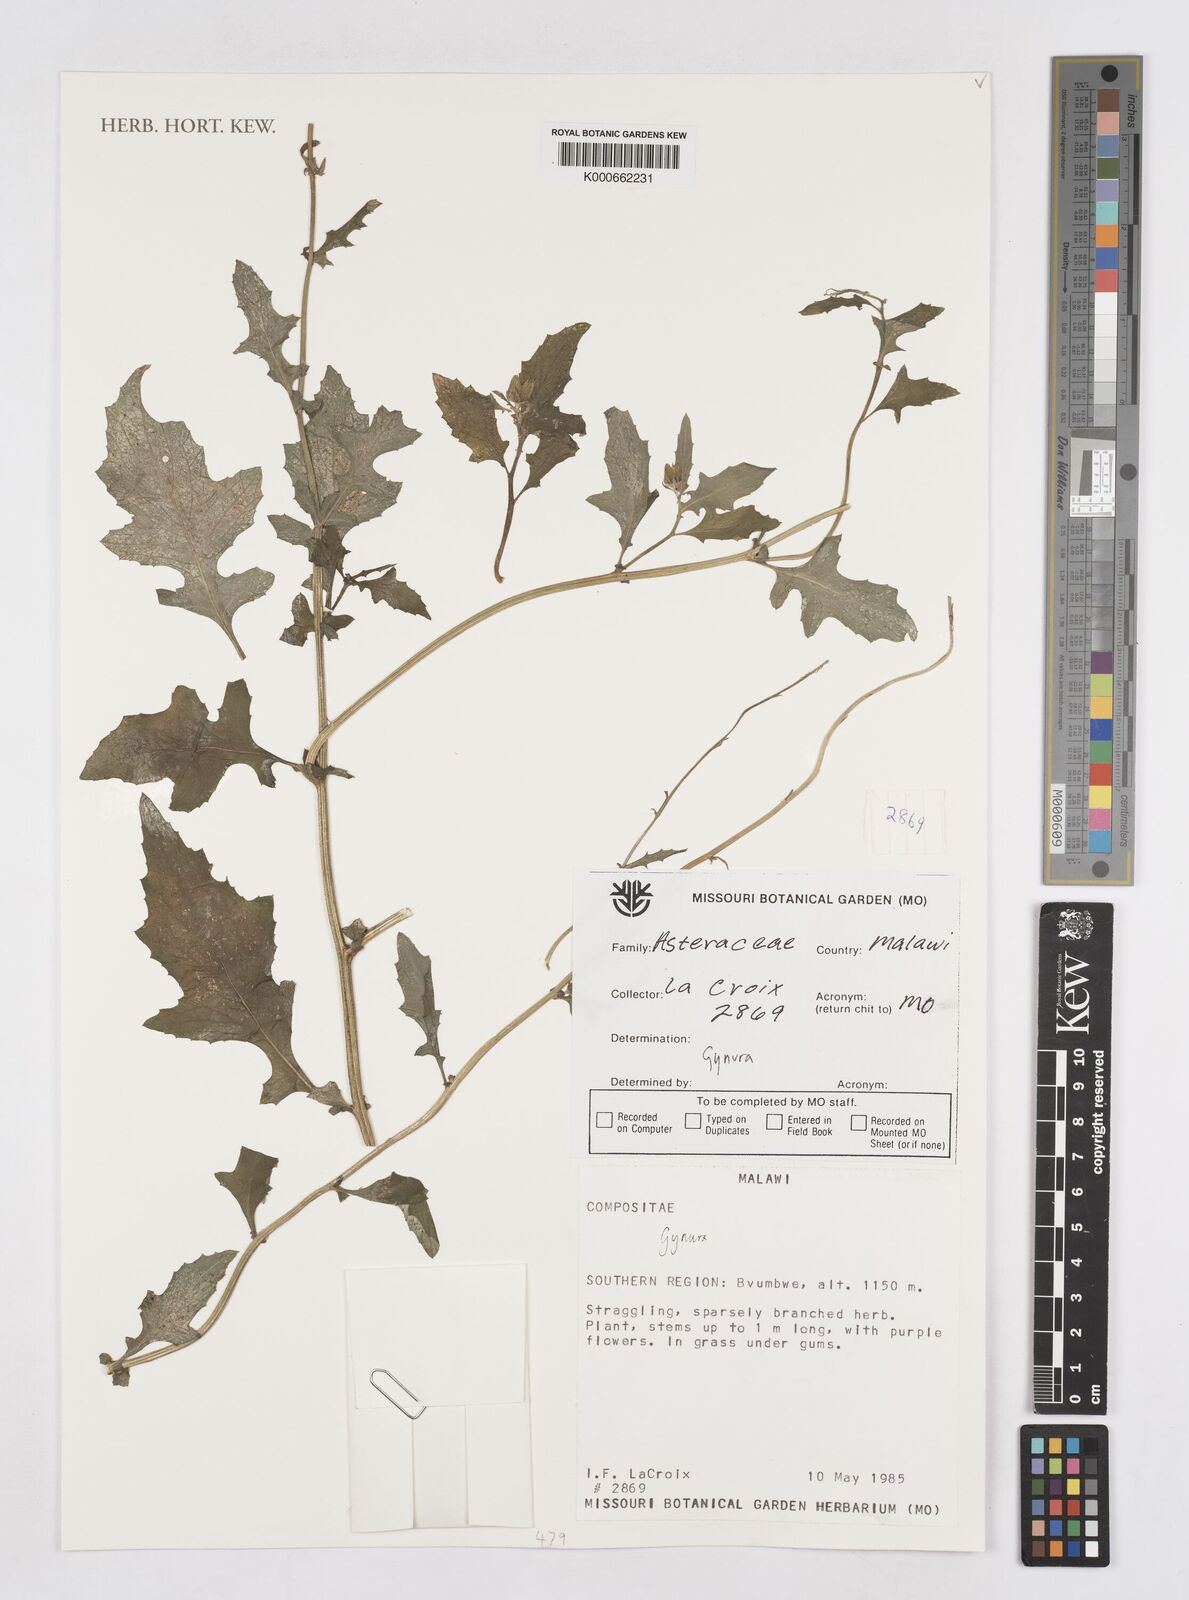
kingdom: Plantae
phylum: Tracheophyta
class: Magnoliopsida
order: Asterales
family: Asteraceae
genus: Gynura
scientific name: Gynura
